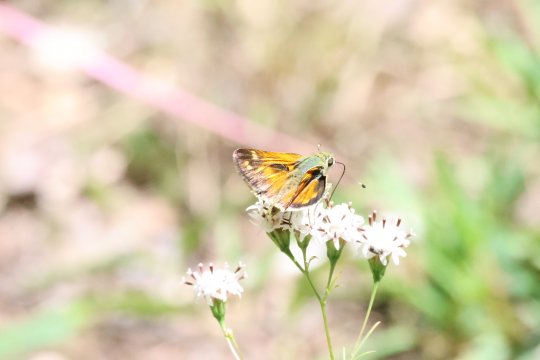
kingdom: Animalia
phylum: Arthropoda
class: Insecta
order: Lepidoptera
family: Hesperiidae
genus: Hylephila
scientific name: Hylephila phyleus
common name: Fiery Skipper
